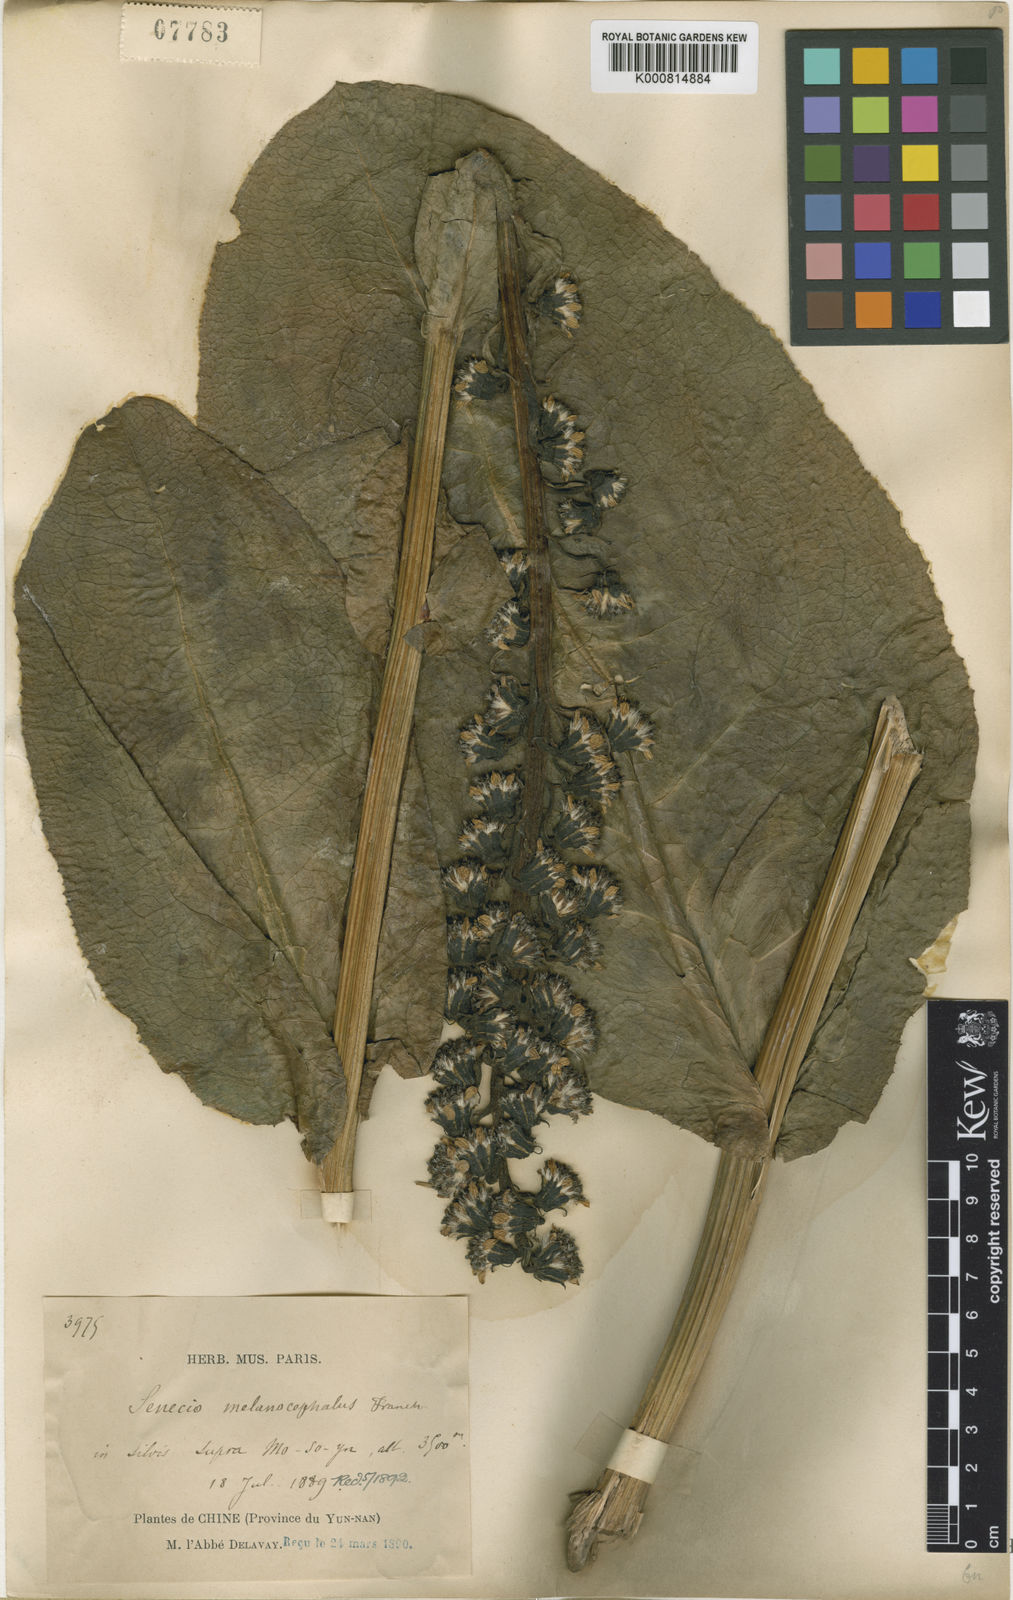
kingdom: Plantae
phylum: Tracheophyta
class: Magnoliopsida
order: Asterales
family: Asteraceae
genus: Ligularia
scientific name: Ligularia melanocephala
